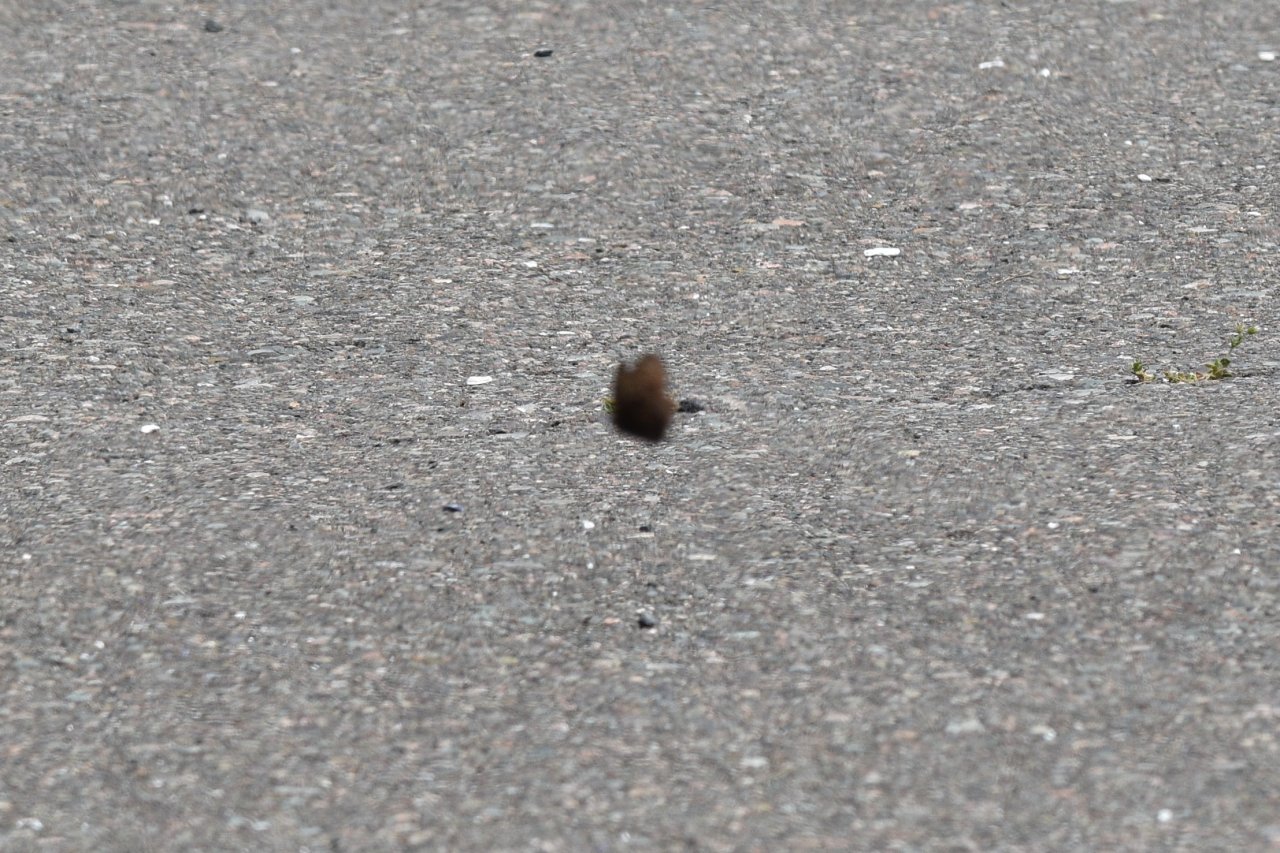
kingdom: Animalia
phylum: Arthropoda
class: Insecta
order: Lepidoptera
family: Nymphalidae
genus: Cercyonis
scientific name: Cercyonis pegala
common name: Common Wood-Nymph
